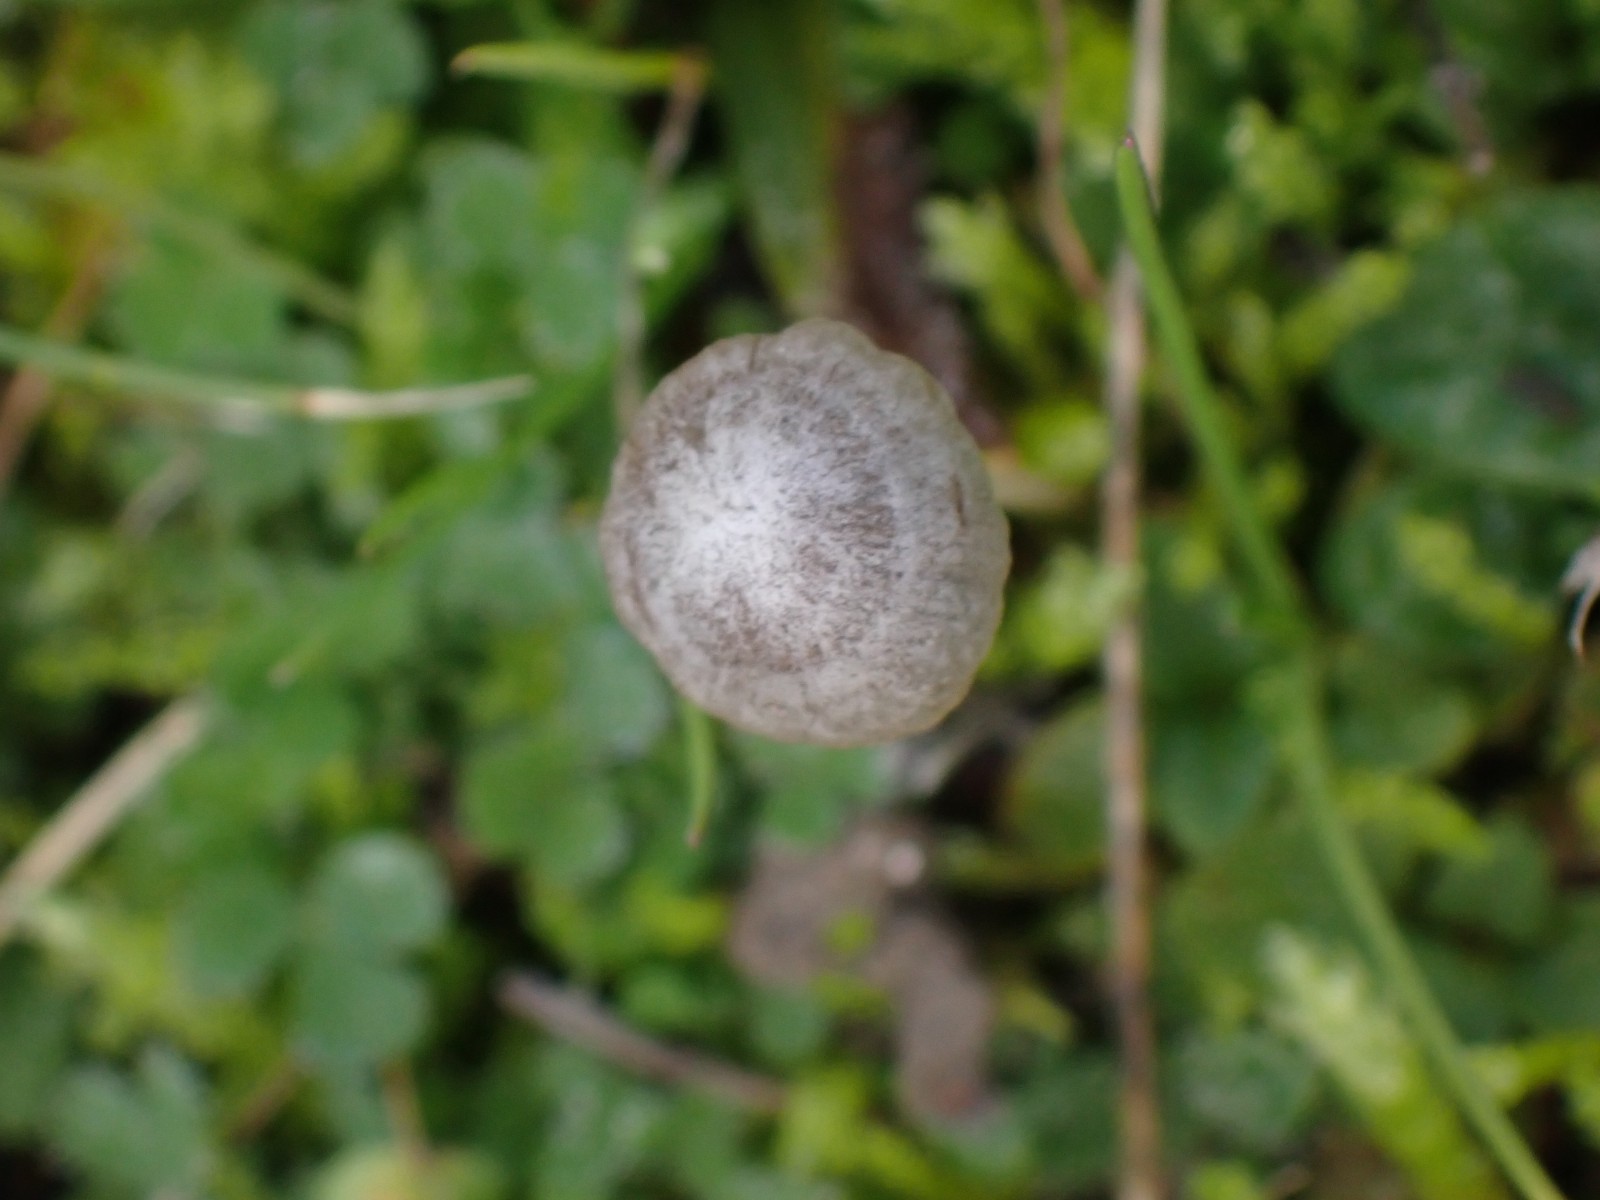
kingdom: Fungi
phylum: Basidiomycota
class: Agaricomycetes
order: Agaricales
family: Psathyrellaceae
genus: Psathyrella
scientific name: Psathyrella
